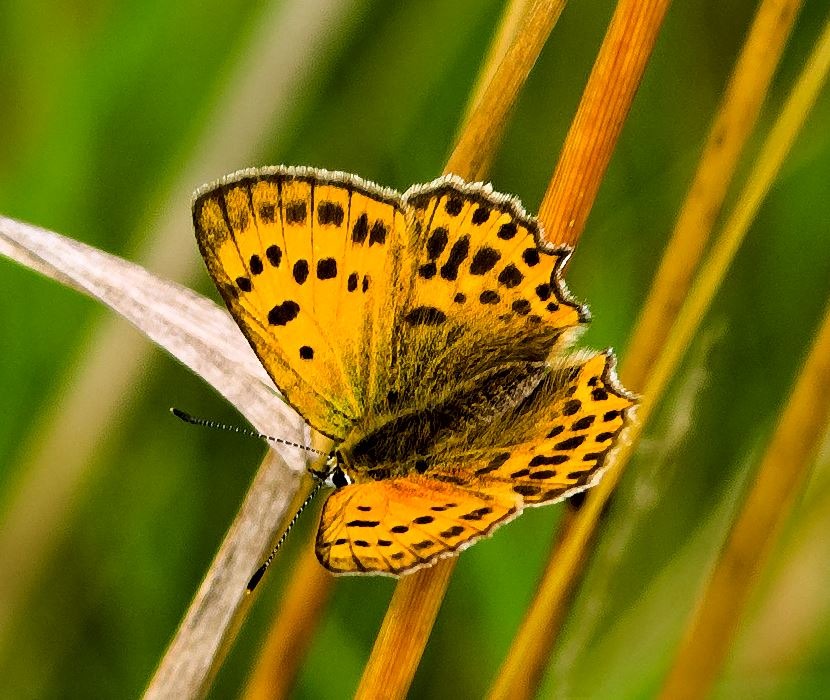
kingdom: Animalia
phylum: Arthropoda
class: Insecta
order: Lepidoptera
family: Lycaenidae
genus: Lycaena
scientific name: Lycaena virgaureae
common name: Dukatsommerfugl
